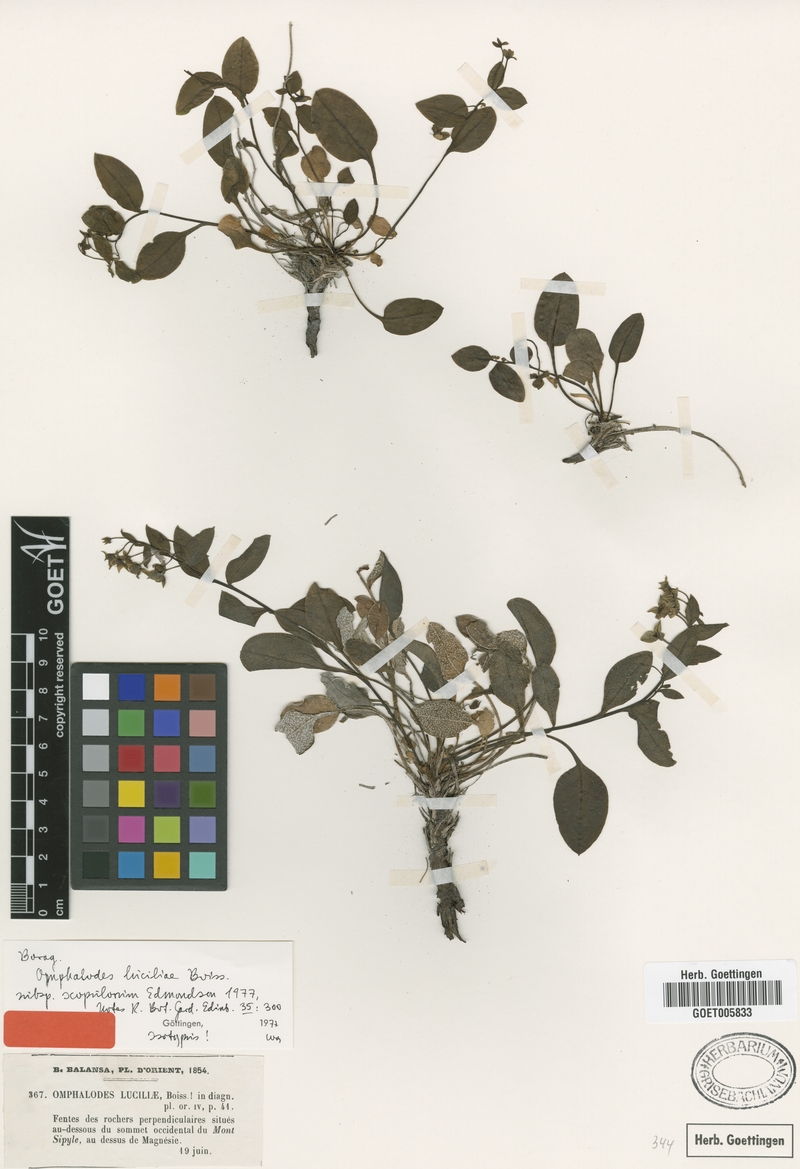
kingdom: Plantae
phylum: Tracheophyta
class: Magnoliopsida
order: Boraginales
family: Boraginaceae
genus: Omphalodes
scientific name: Omphalodes luciliae
